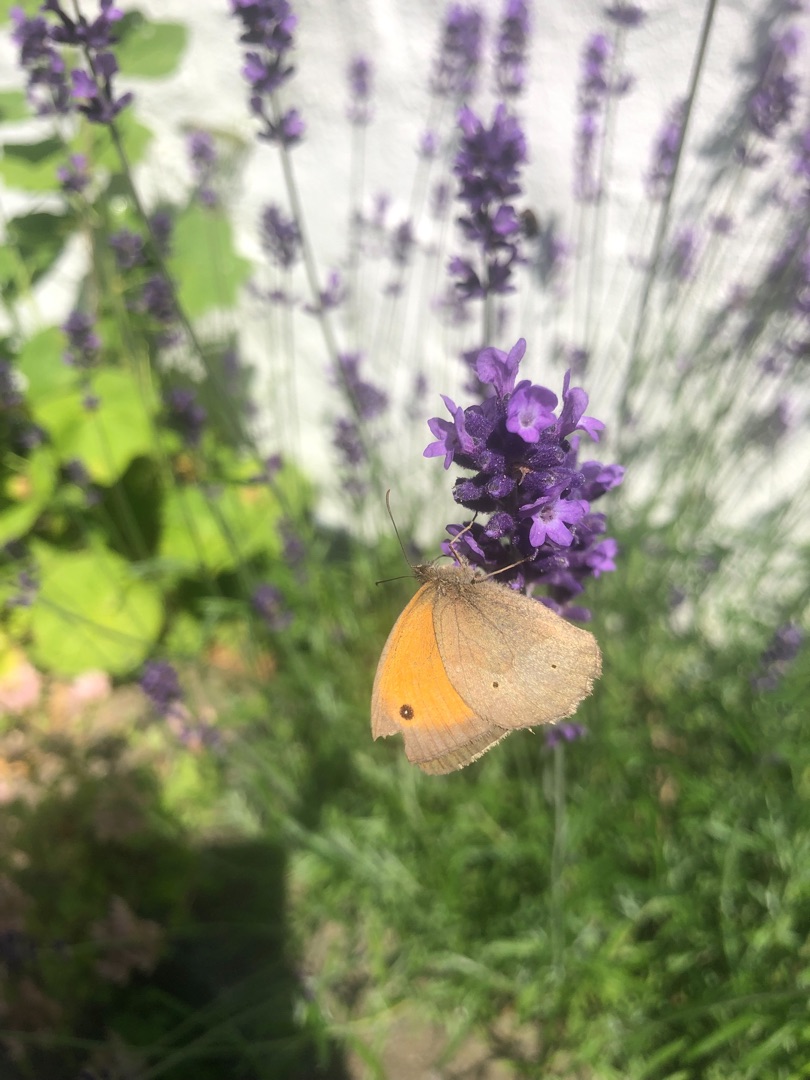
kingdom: Animalia
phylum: Arthropoda
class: Insecta
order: Lepidoptera
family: Nymphalidae
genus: Maniola
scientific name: Maniola jurtina
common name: Græsrandøje
